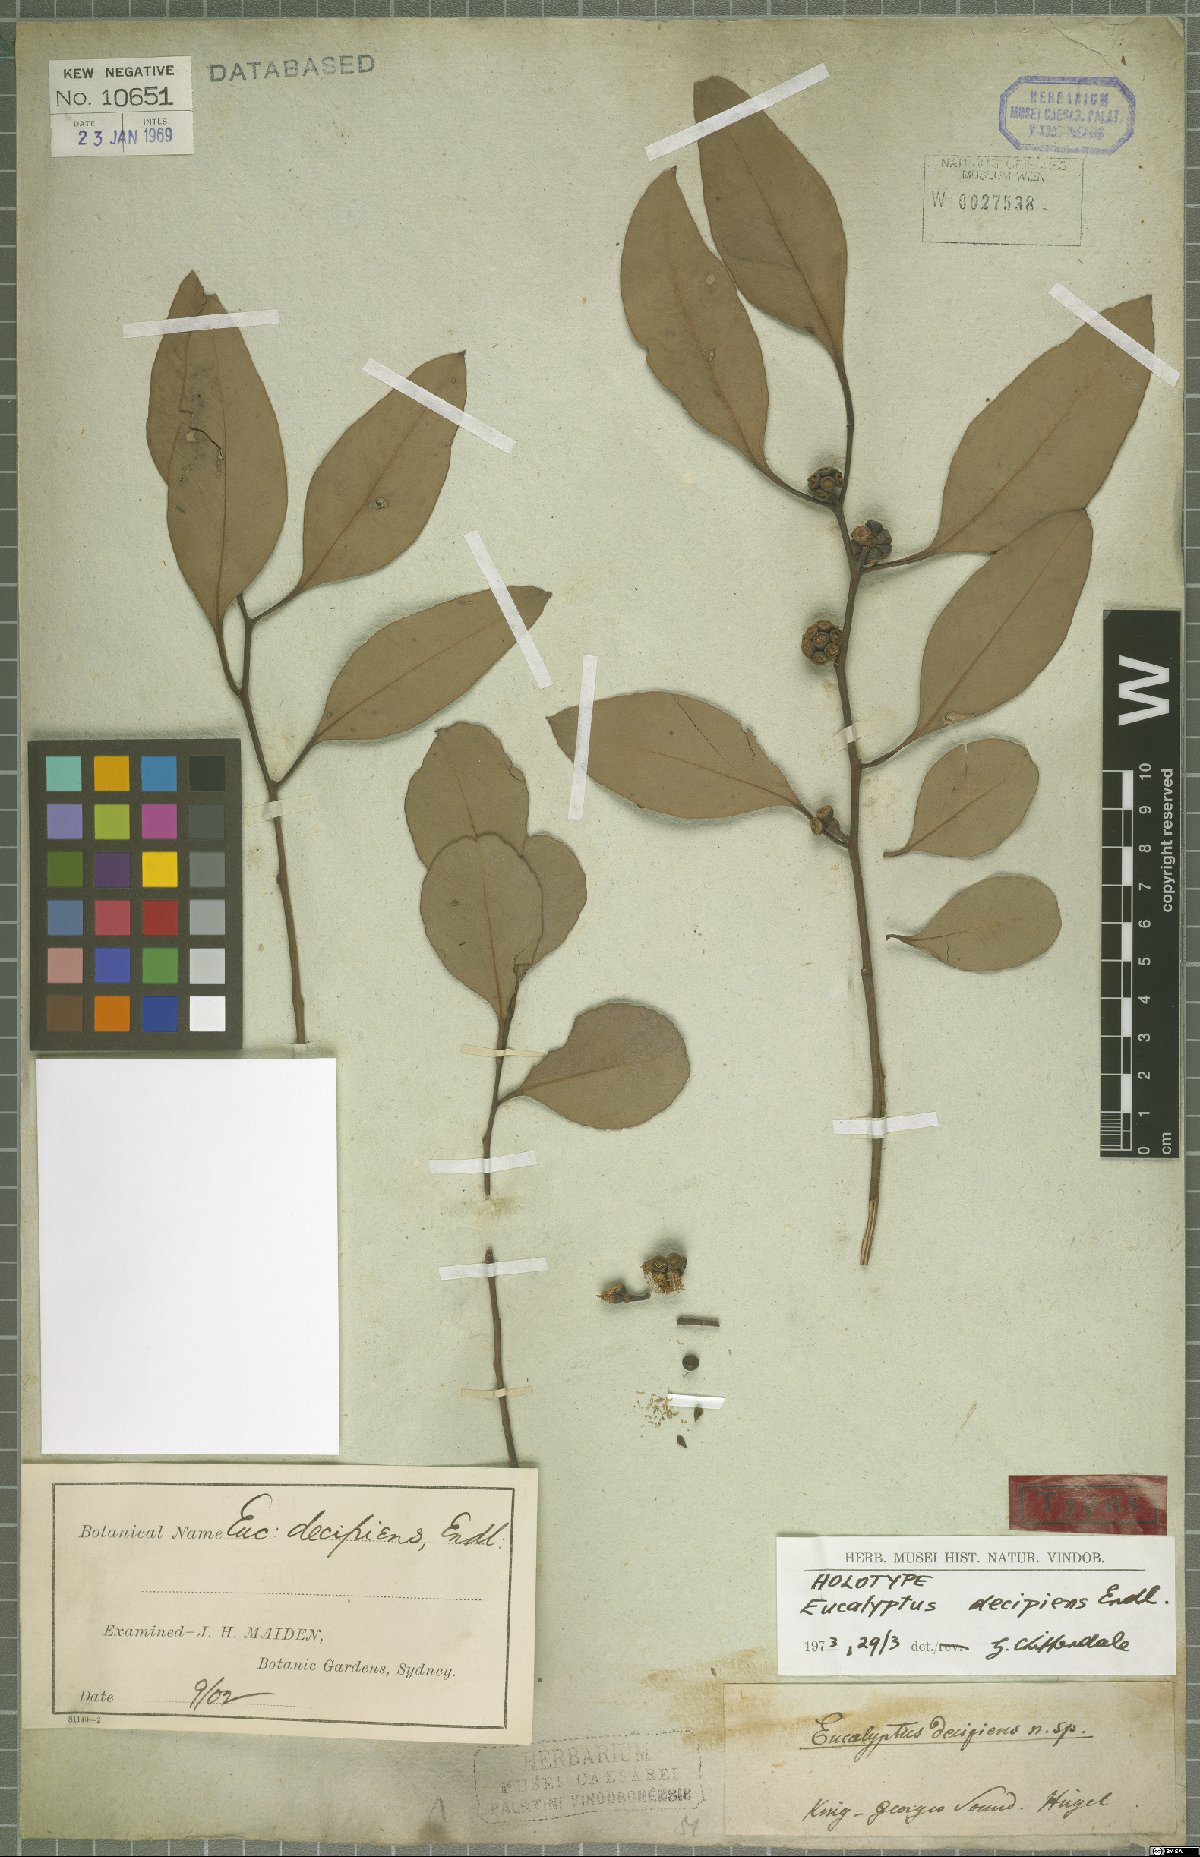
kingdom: Plantae
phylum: Tracheophyta
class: Magnoliopsida
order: Myrtales
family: Myrtaceae
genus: Eucalyptus
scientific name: Eucalyptus decipiens
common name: Limestone marlock
